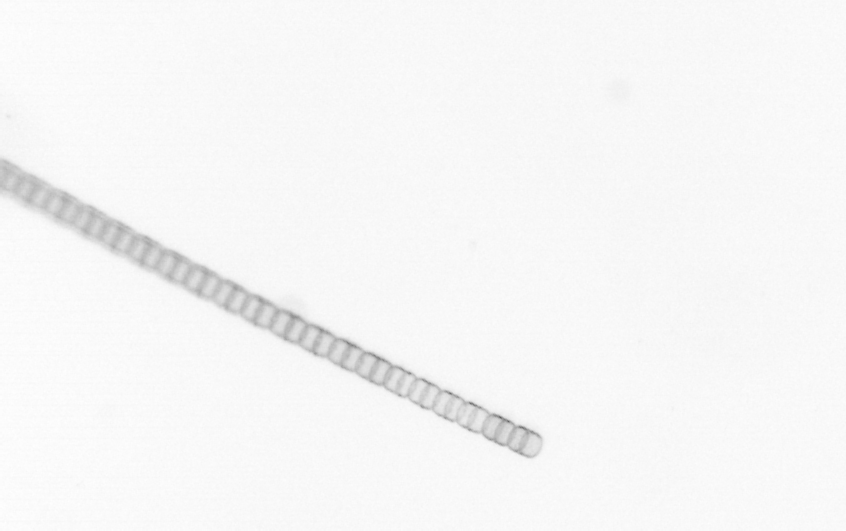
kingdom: Chromista
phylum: Ochrophyta
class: Bacillariophyceae
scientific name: Bacillariophyceae
